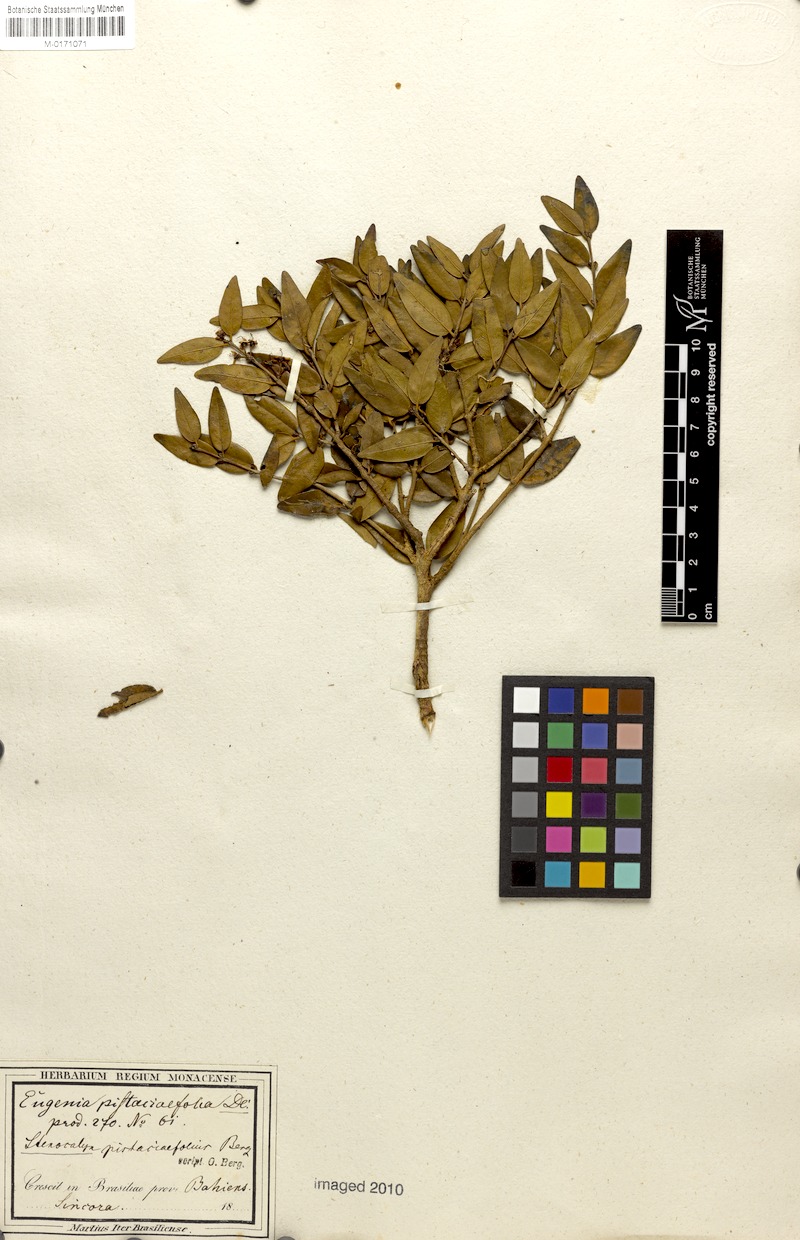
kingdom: Plantae
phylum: Tracheophyta
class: Magnoliopsida
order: Myrtales
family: Myrtaceae
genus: Eugenia
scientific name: Eugenia pistaciifolia
